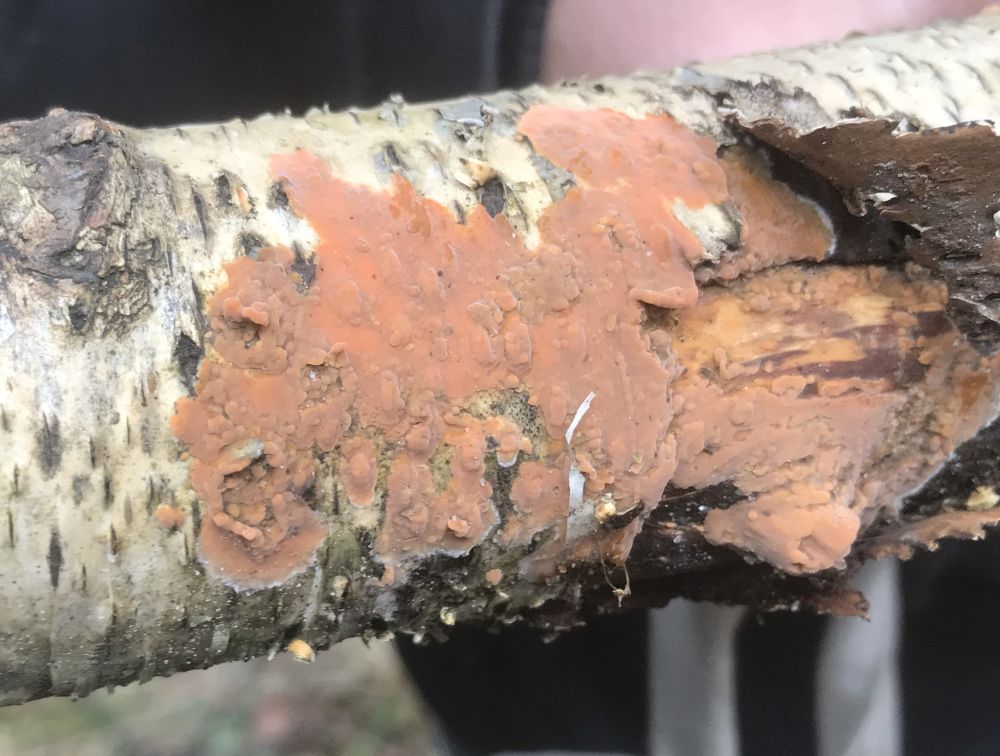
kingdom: Fungi
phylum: Basidiomycota
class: Agaricomycetes
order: Russulales
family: Peniophoraceae
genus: Peniophora
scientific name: Peniophora incarnata
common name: laksefarvet voksskind
